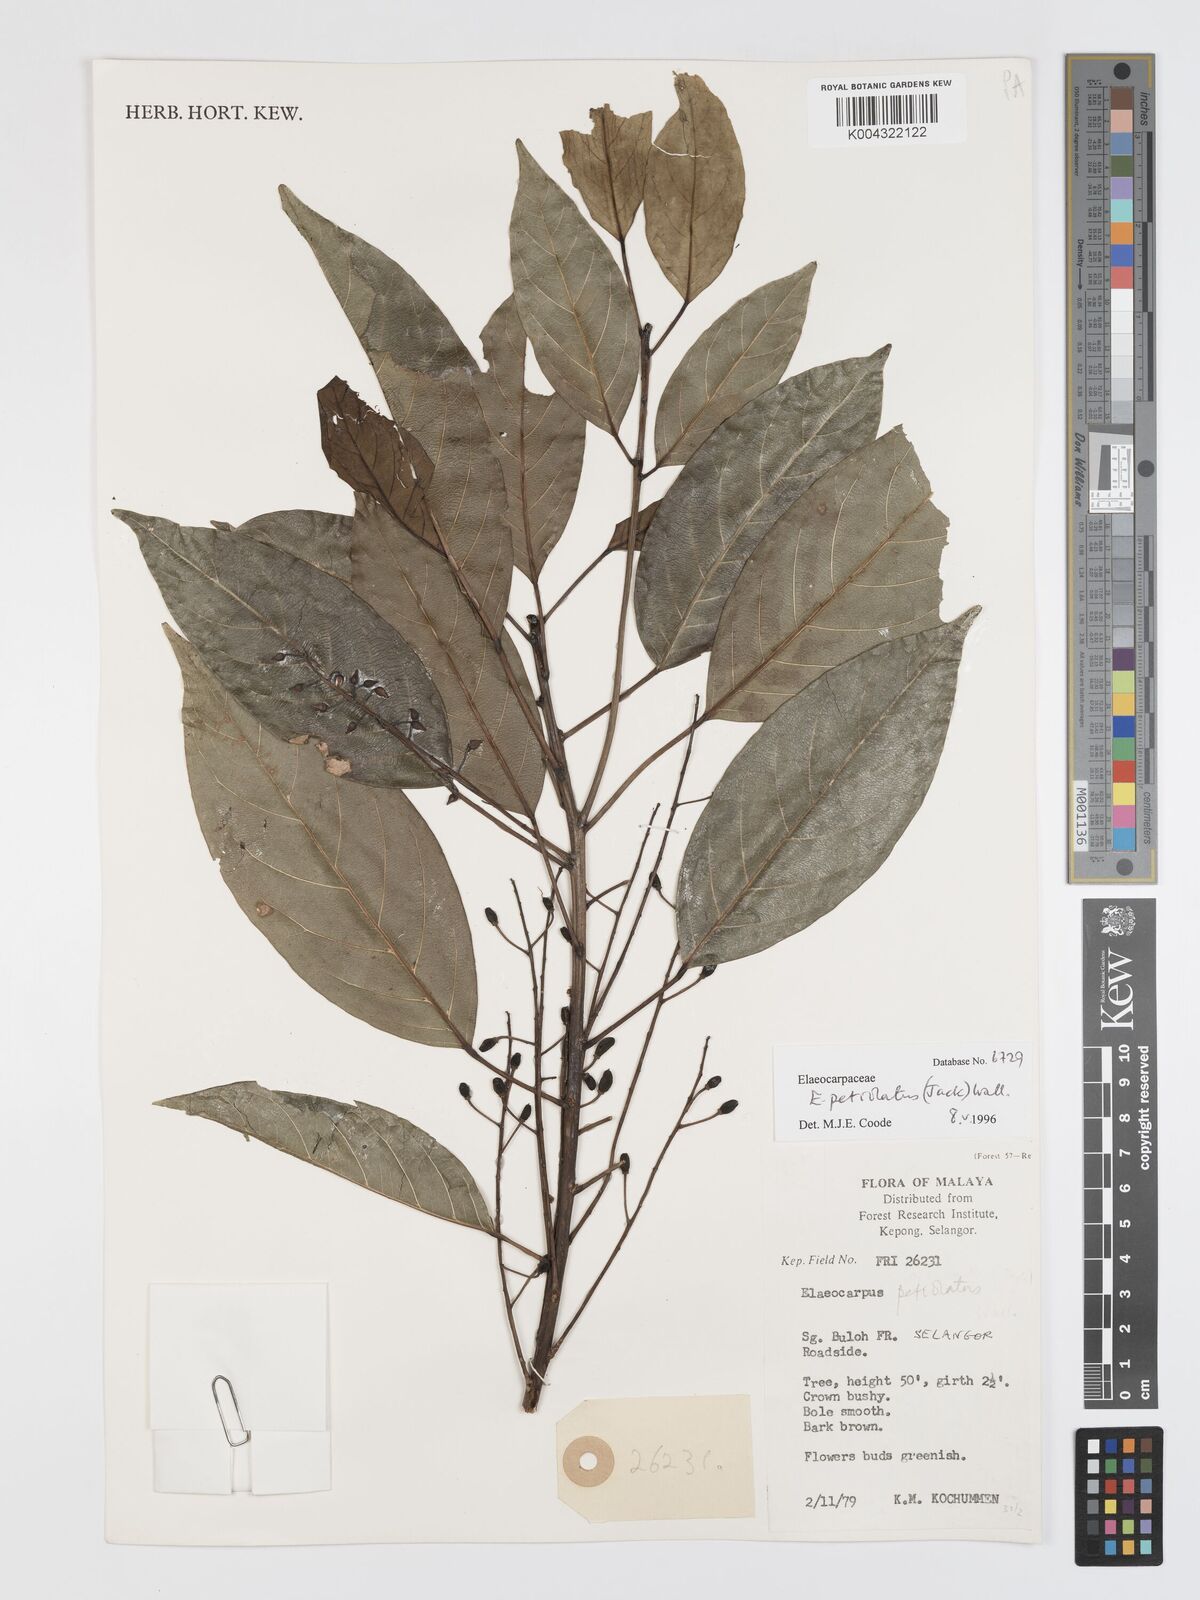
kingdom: Plantae
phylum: Tracheophyta
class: Magnoliopsida
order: Oxalidales
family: Elaeocarpaceae
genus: Elaeocarpus
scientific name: Elaeocarpus petiolatus
